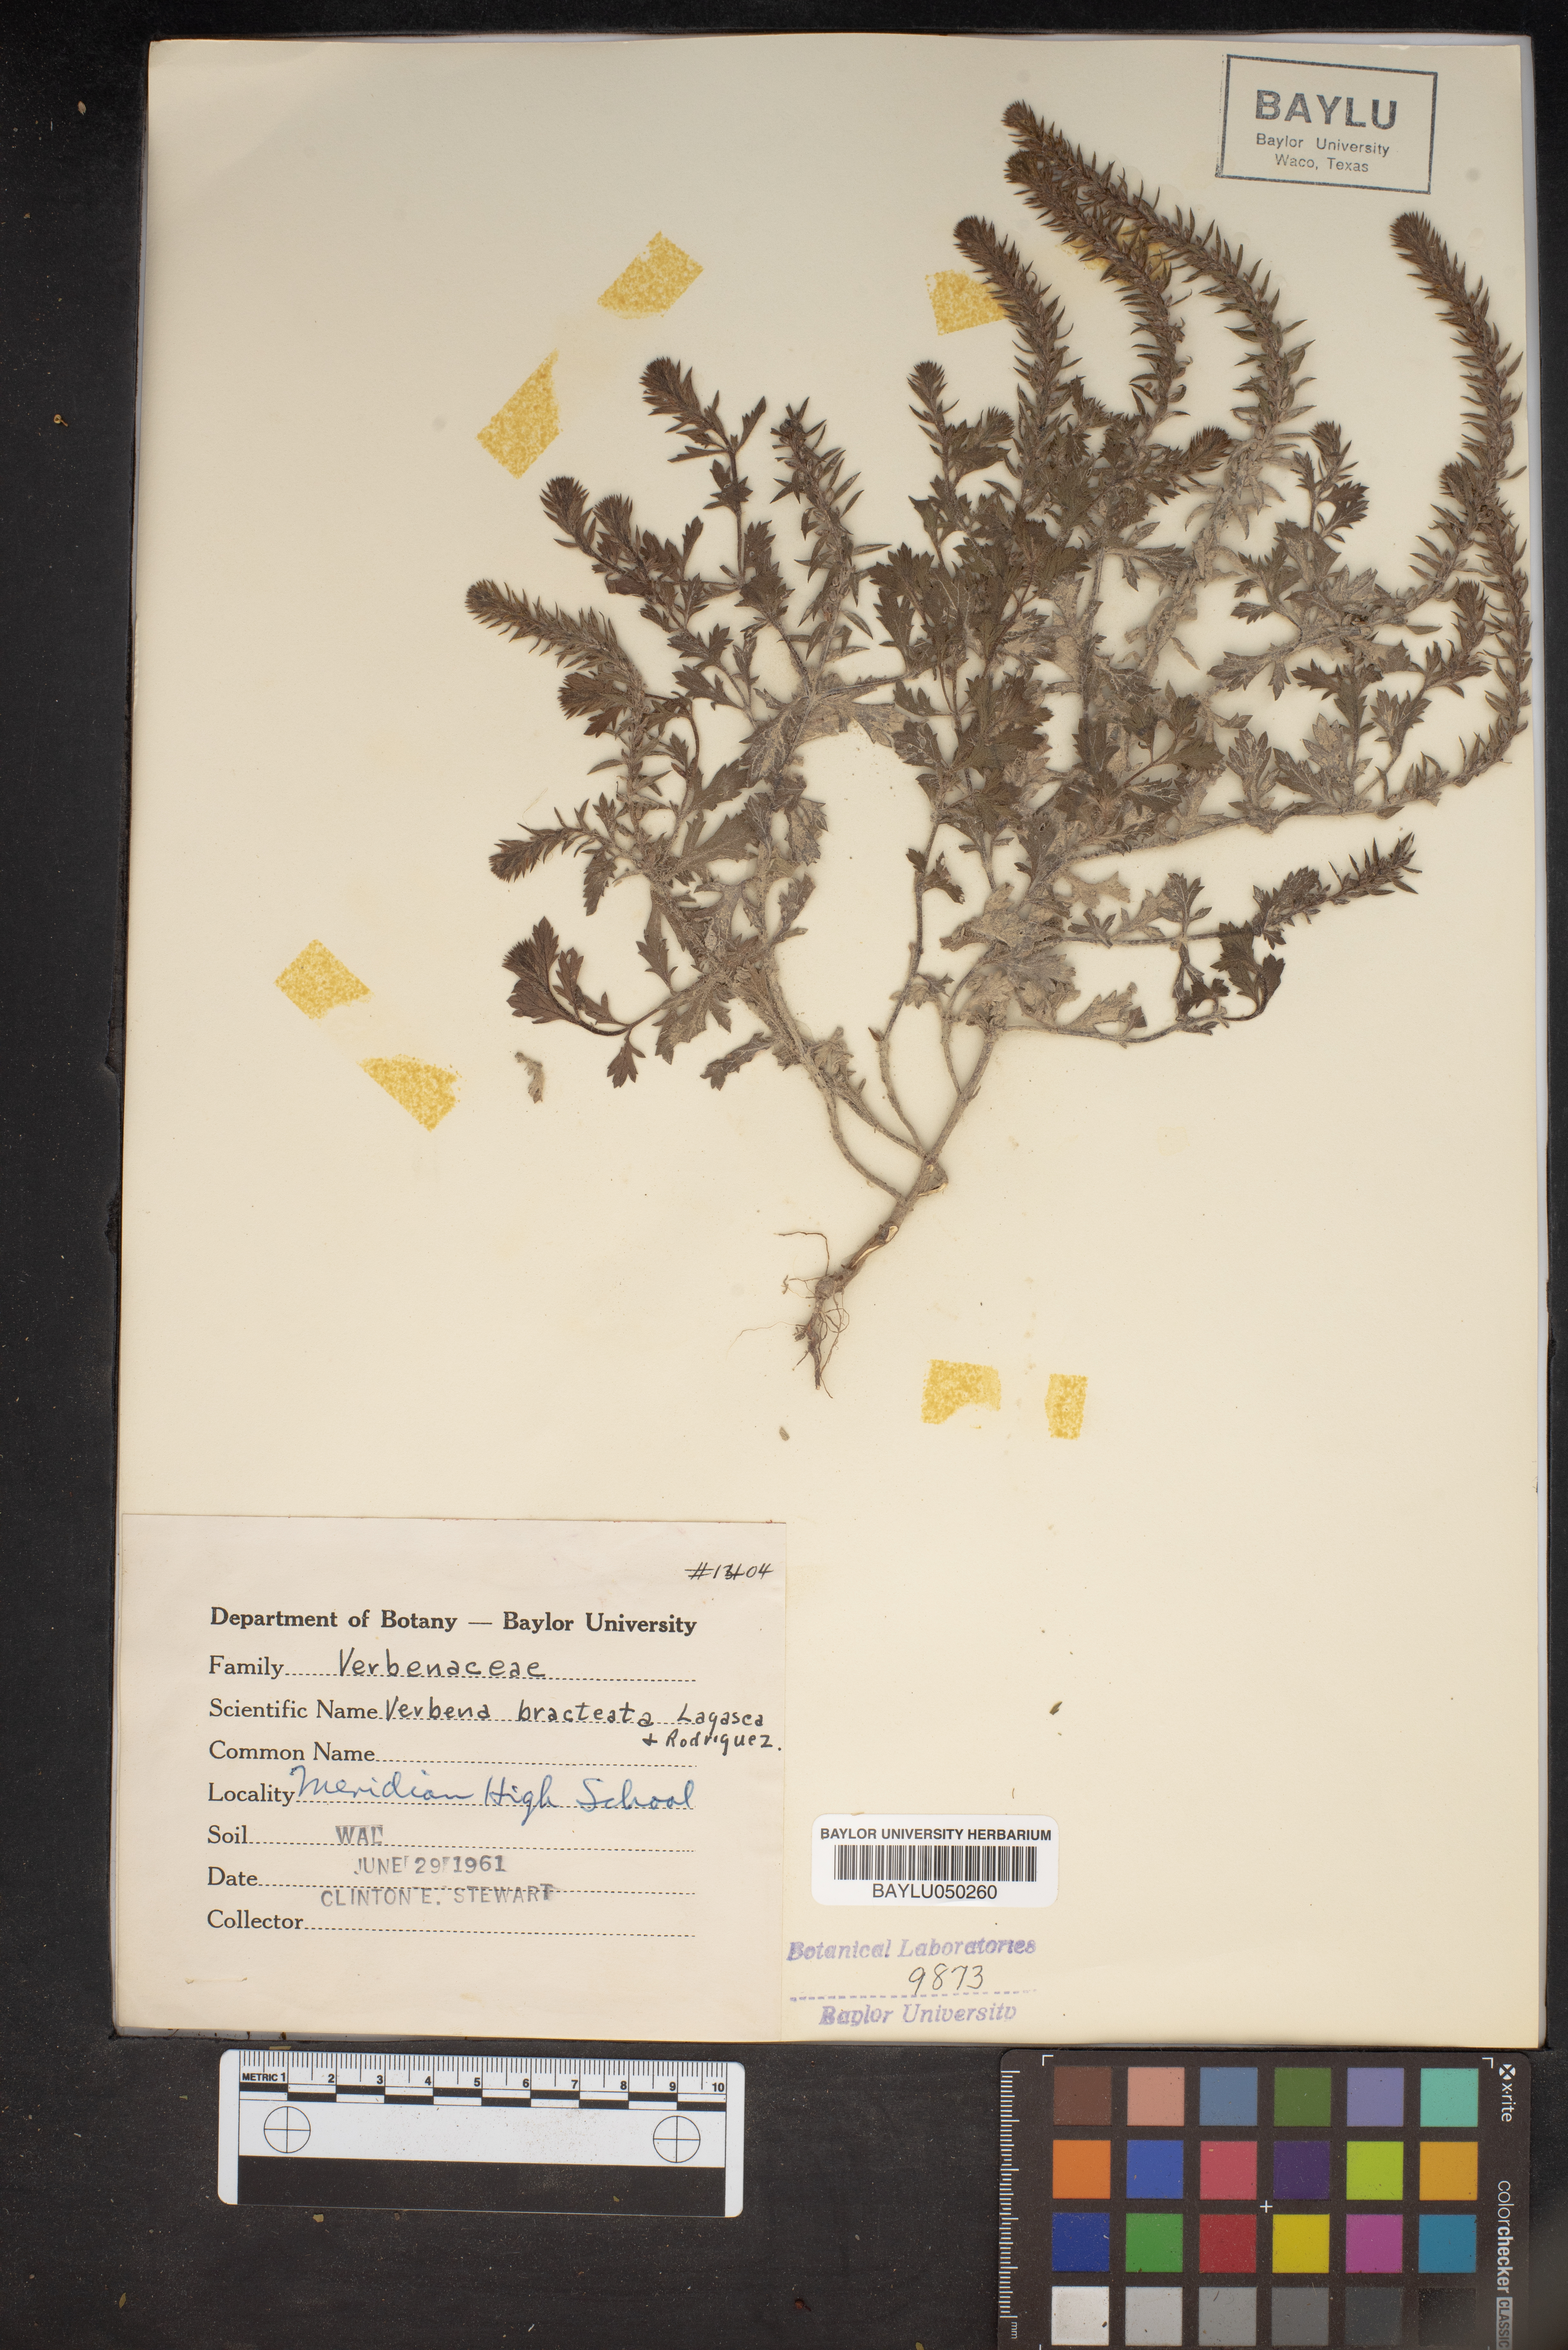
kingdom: Plantae
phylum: Tracheophyta
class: Magnoliopsida
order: Lamiales
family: Verbenaceae
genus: Verbena
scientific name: Verbena bracteata
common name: Bracted vervain
